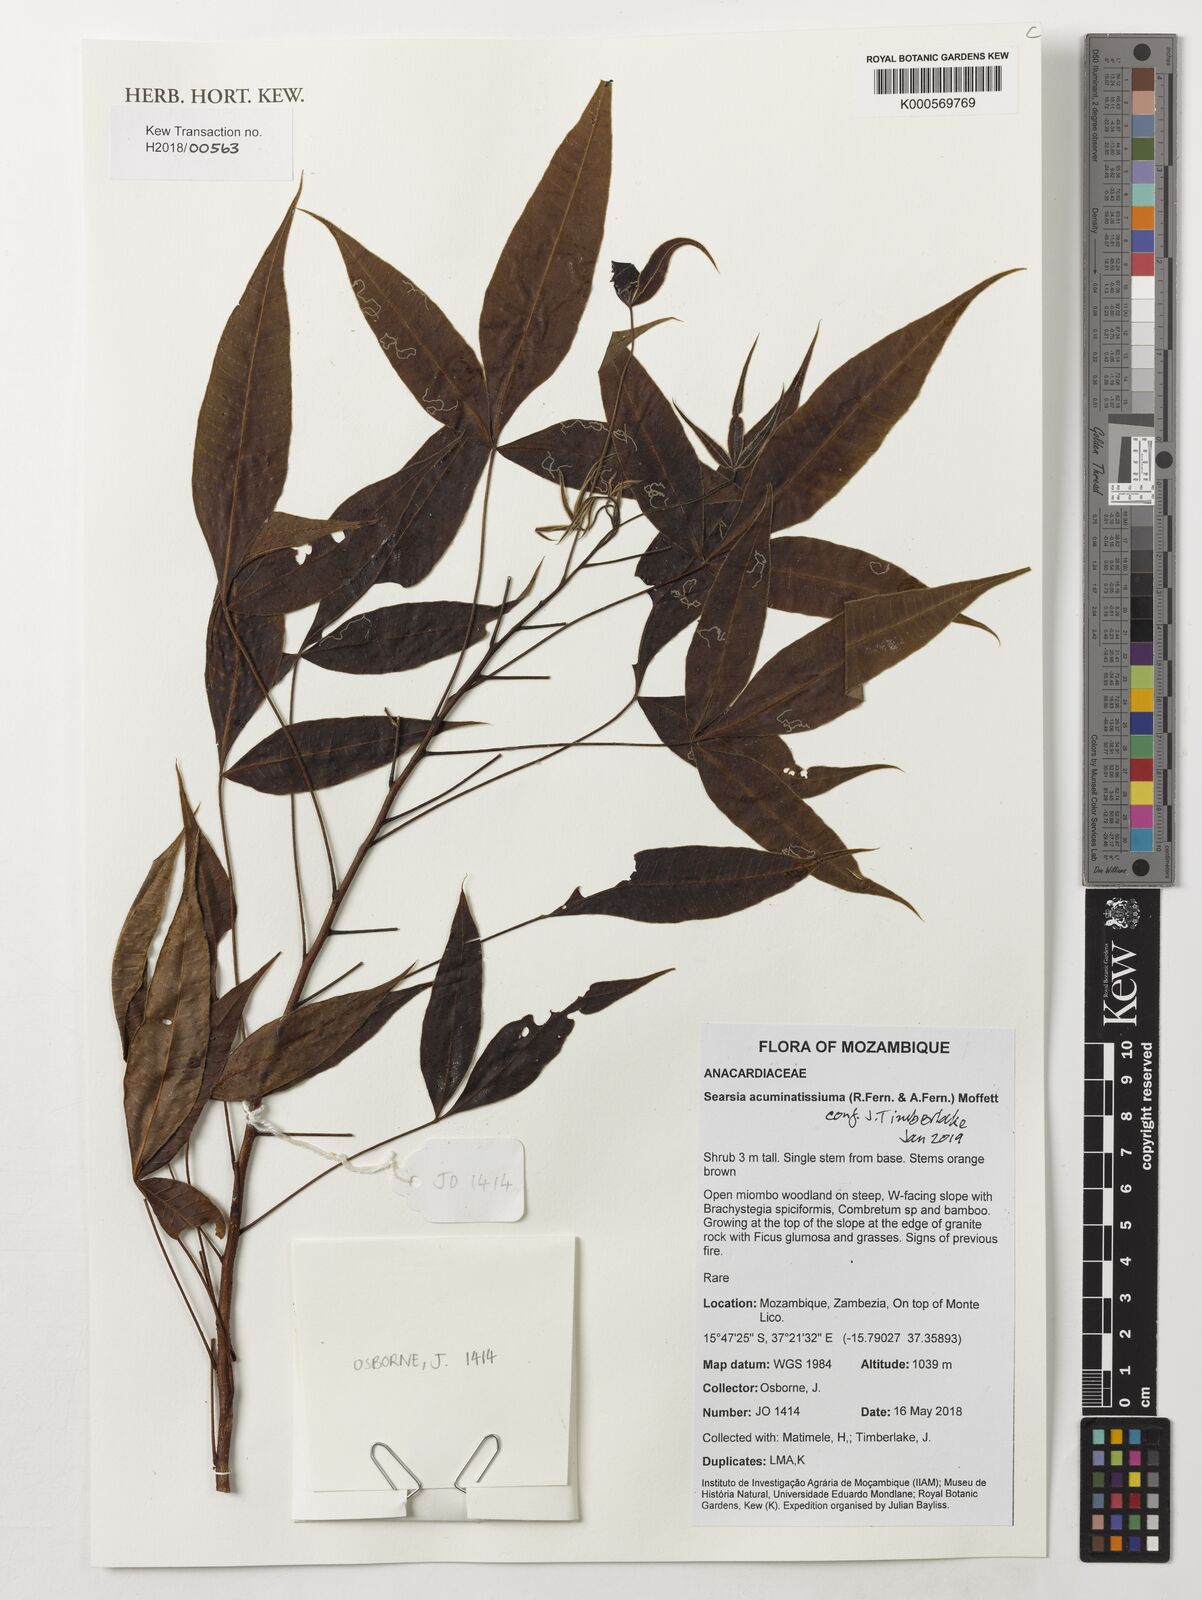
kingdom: Plantae
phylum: Tracheophyta
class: Magnoliopsida
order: Sapindales
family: Anacardiaceae
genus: Searsia
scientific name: Searsia acuminatissima
